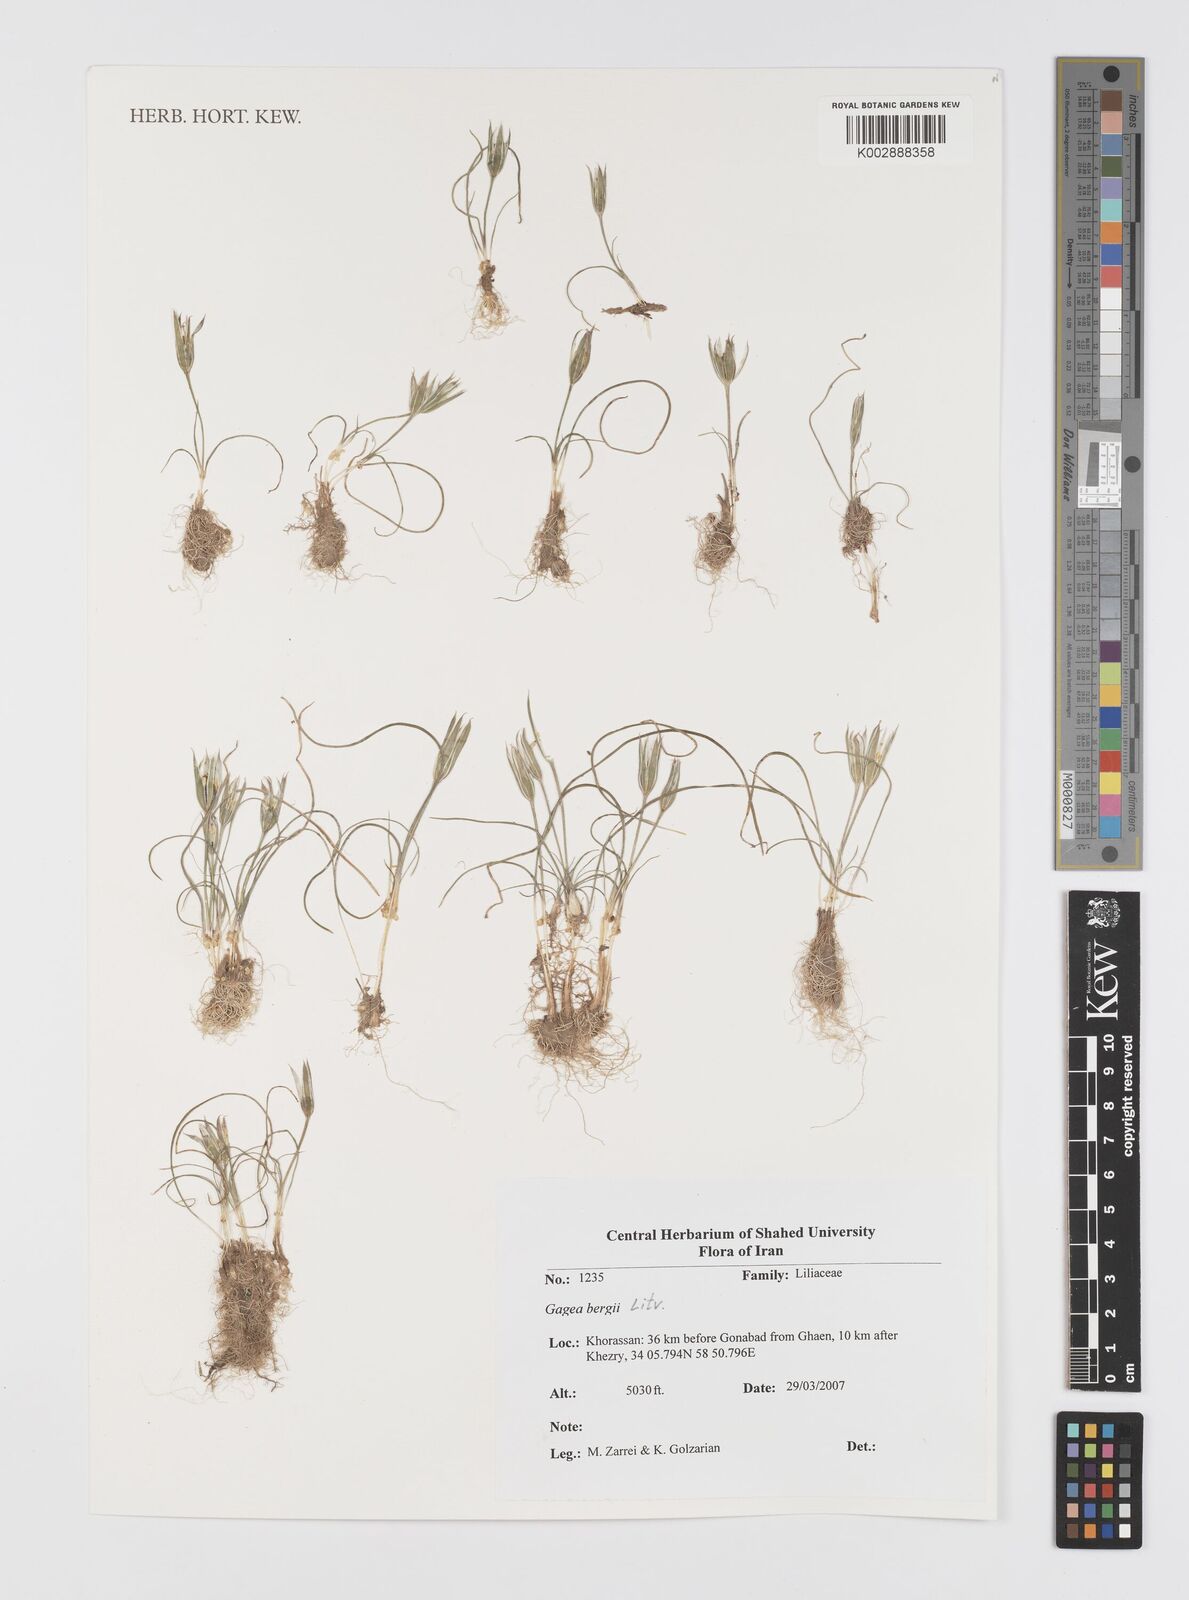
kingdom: Plantae
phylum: Tracheophyta
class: Liliopsida
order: Liliales
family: Liliaceae
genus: Gagea
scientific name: Gagea bergii
